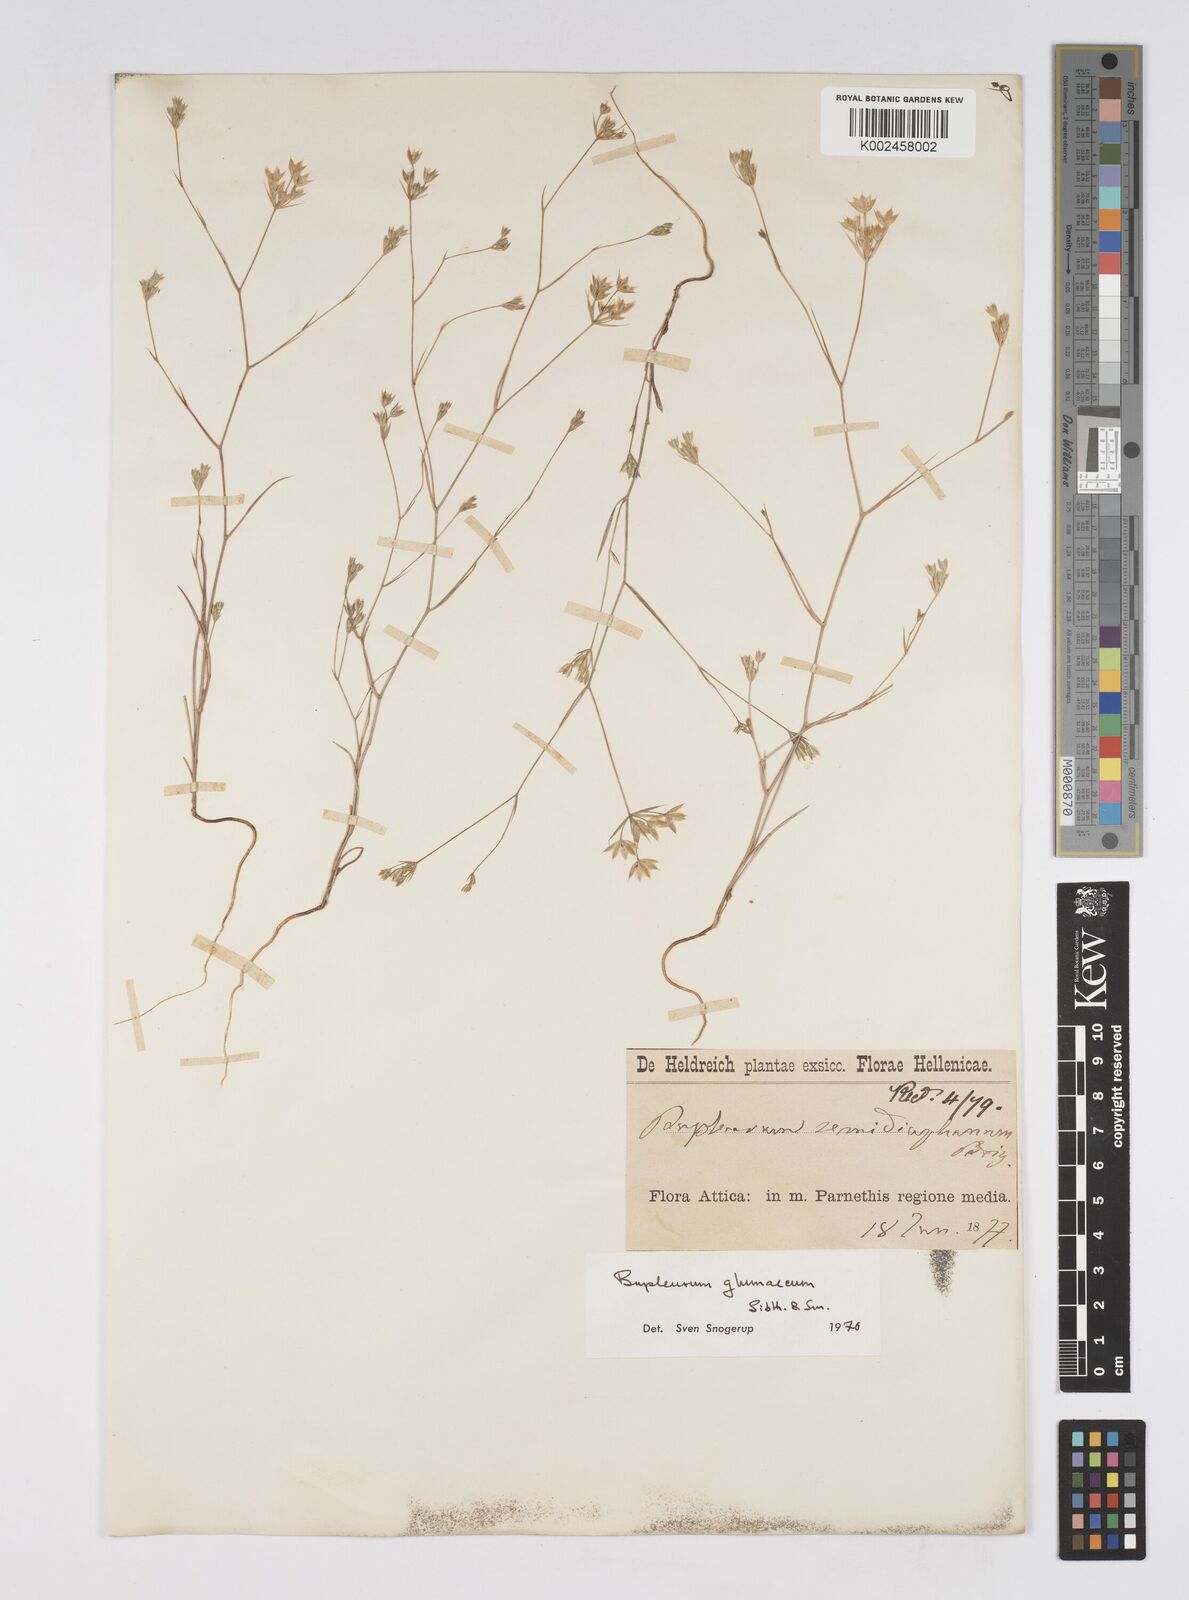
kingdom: Plantae
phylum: Tracheophyta
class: Magnoliopsida
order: Apiales
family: Apiaceae
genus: Bupleurum
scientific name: Bupleurum glumaceum
